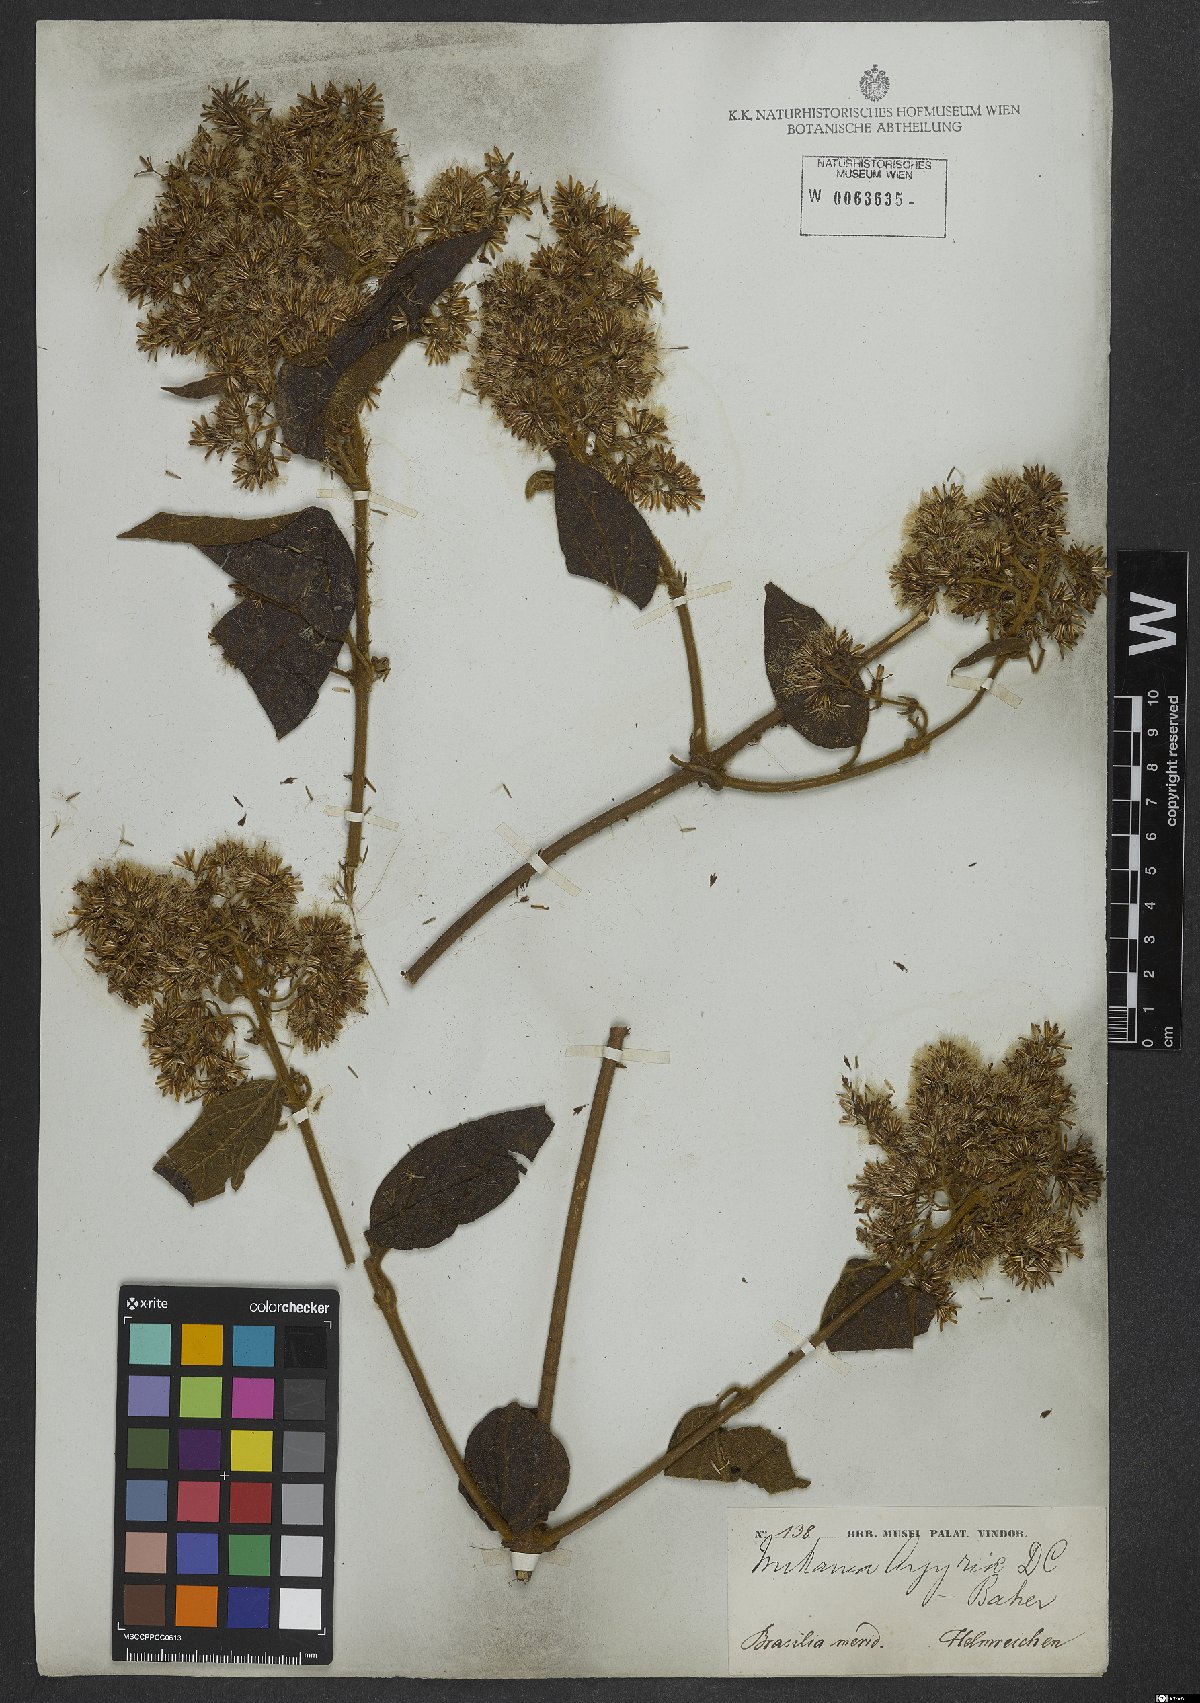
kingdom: Plantae
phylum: Tracheophyta
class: Magnoliopsida
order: Asterales
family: Asteraceae
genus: Mikania
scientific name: Mikania argyreiae
